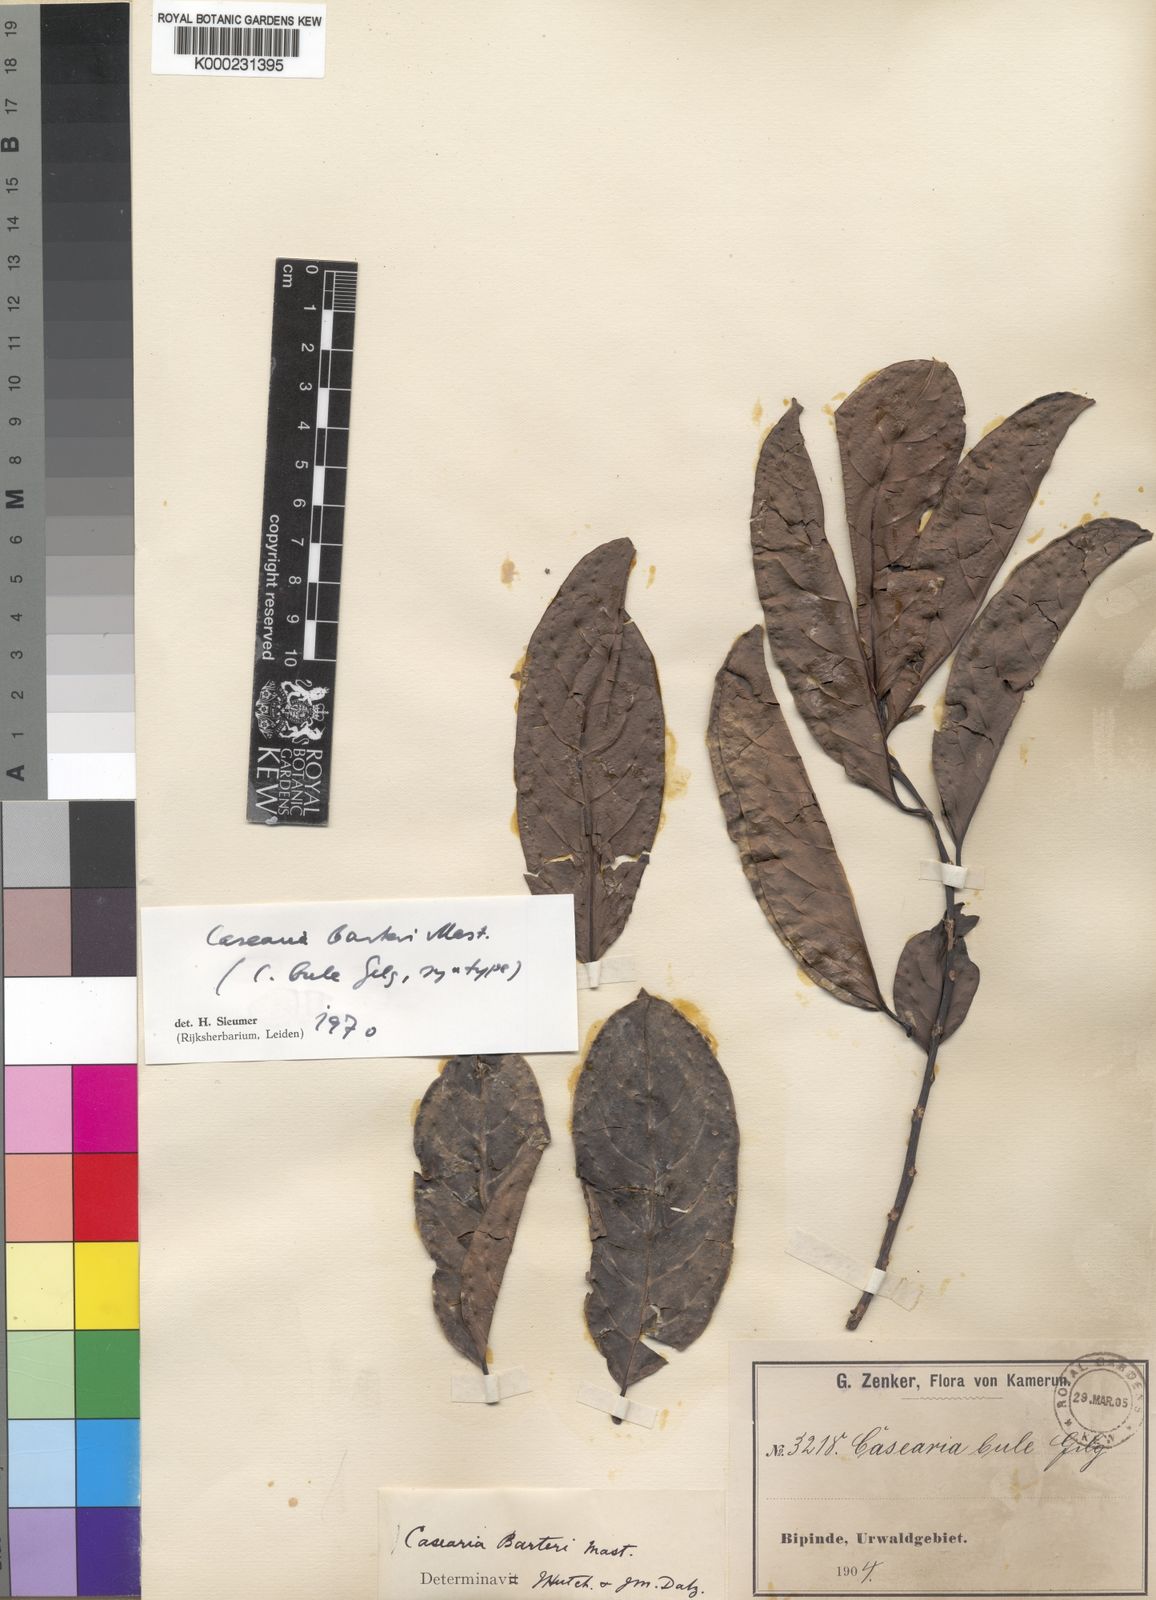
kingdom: Plantae
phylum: Tracheophyta
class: Magnoliopsida
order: Malpighiales
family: Salicaceae
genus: Casearia
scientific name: Casearia barteri
